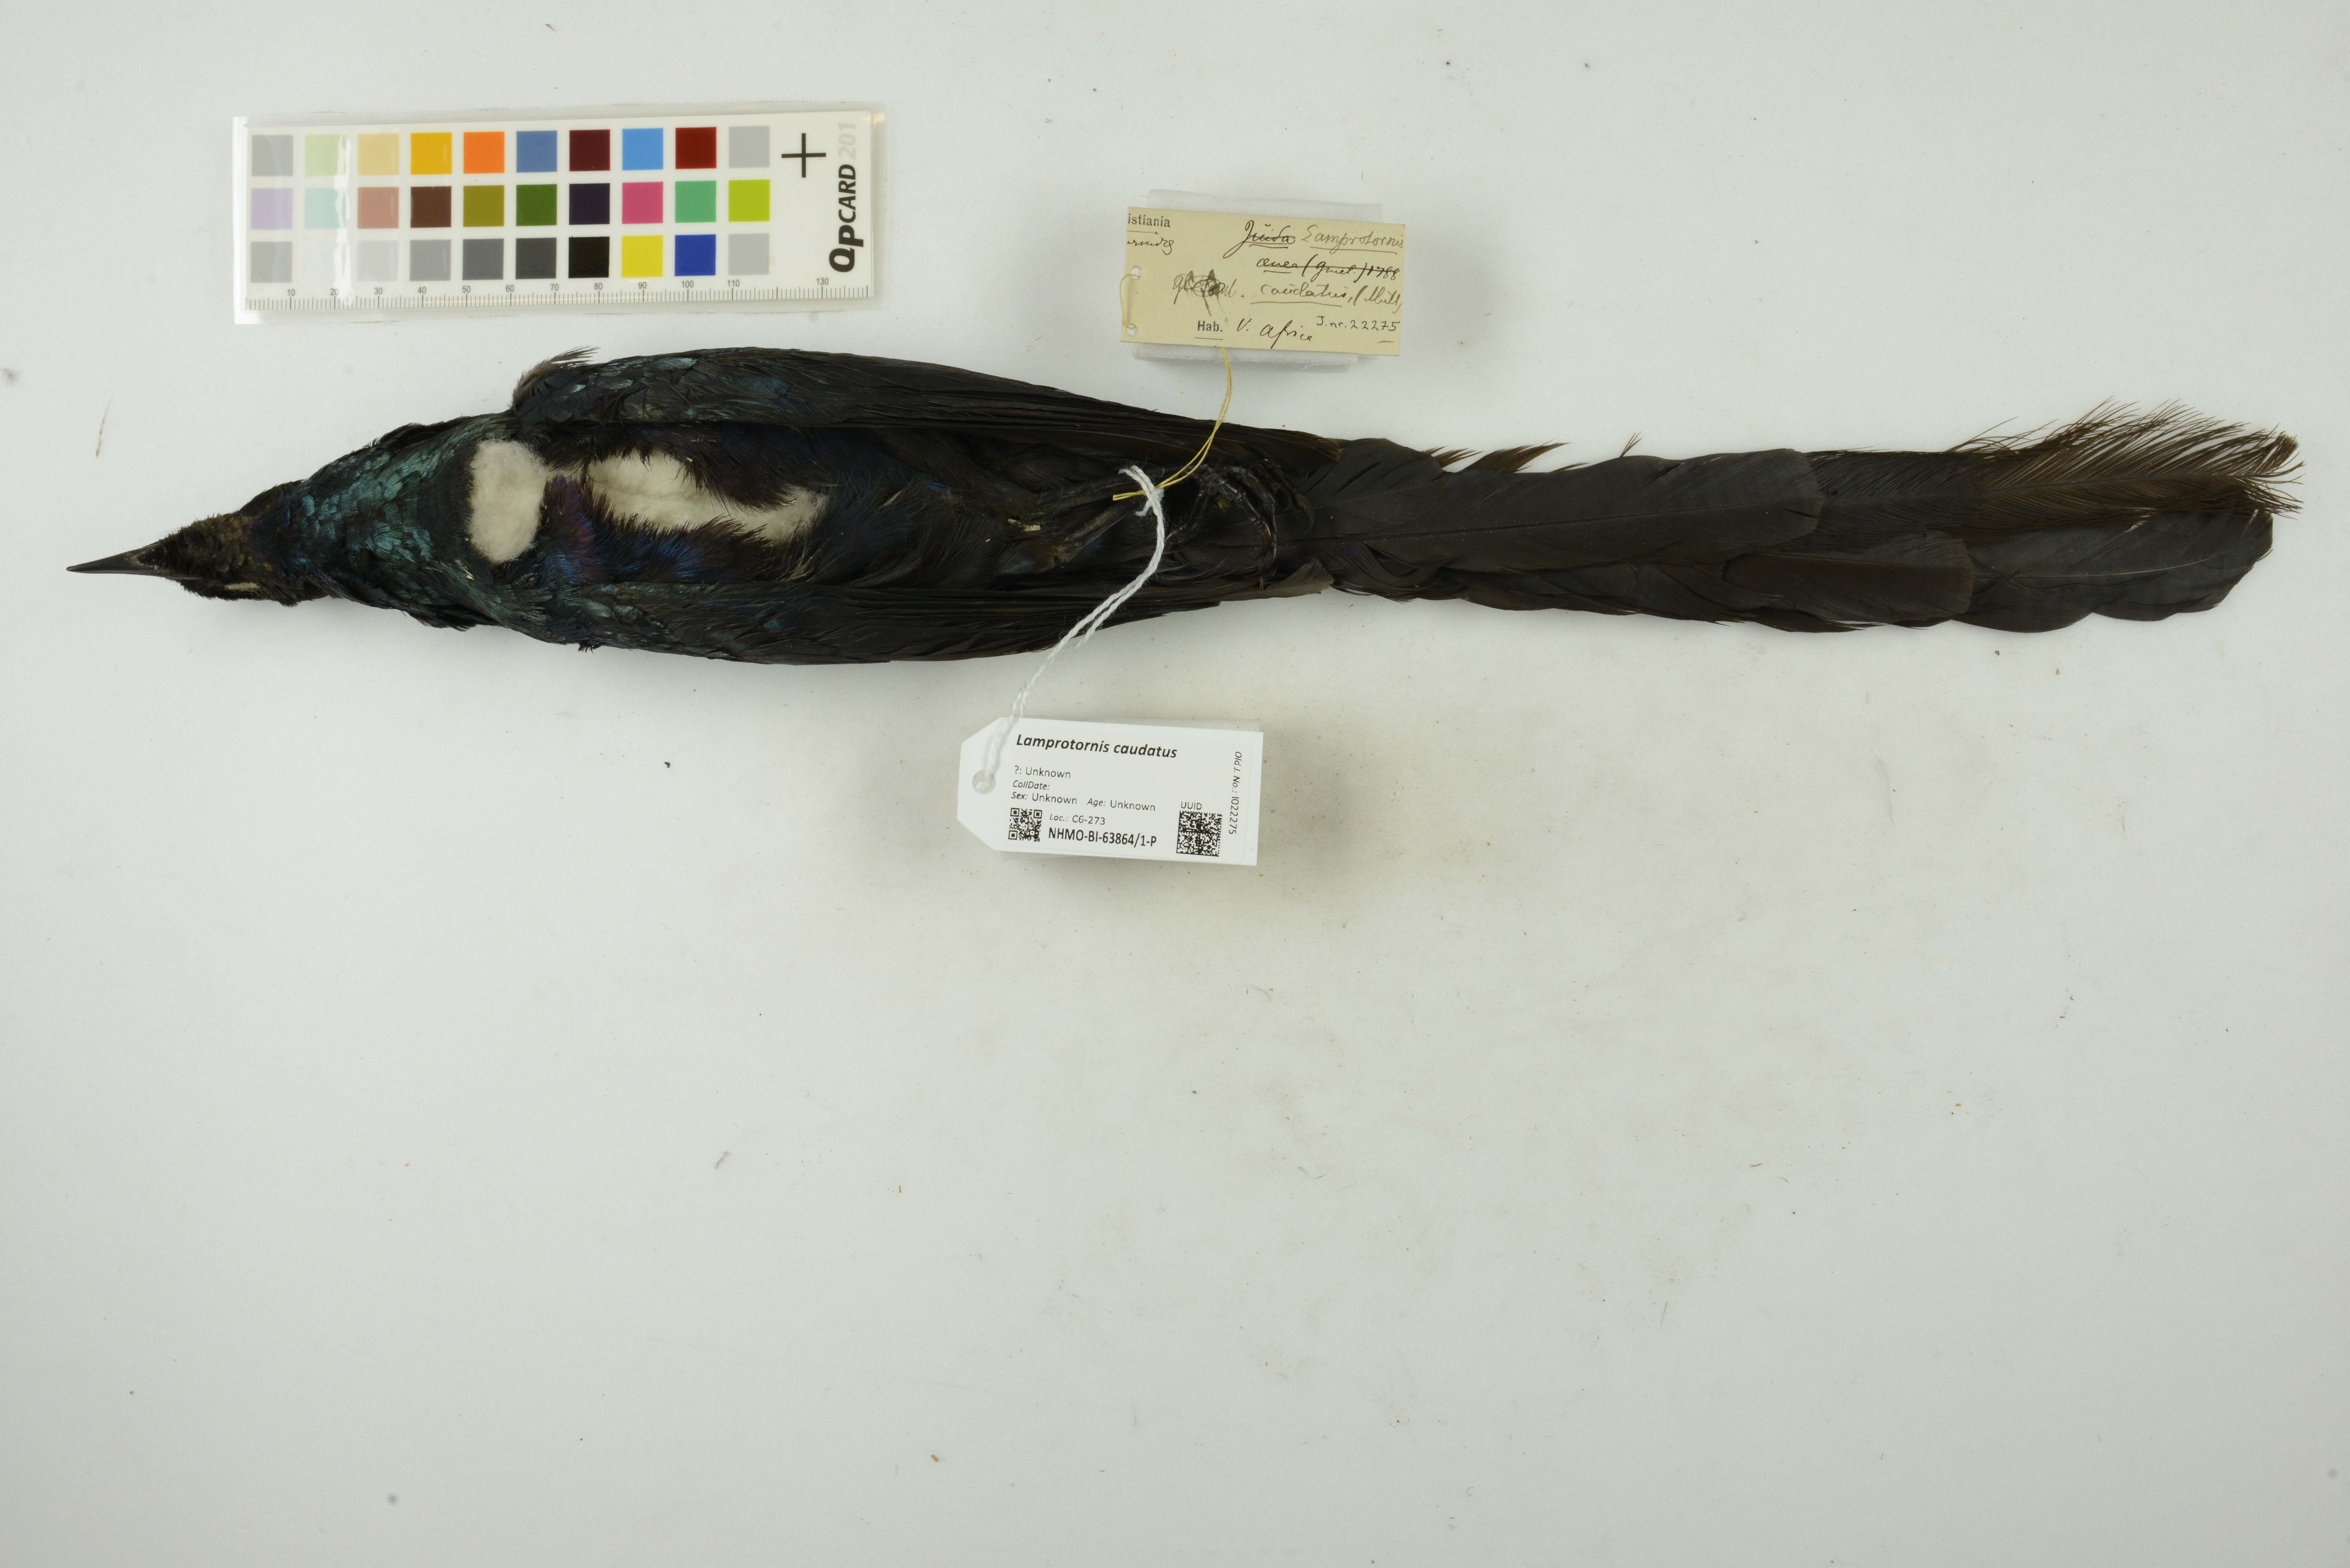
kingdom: Animalia
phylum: Chordata
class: Aves
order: Passeriformes
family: Sturnidae
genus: Lamprotornis
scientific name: Lamprotornis caudatus
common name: Long-tailed glossy starling
